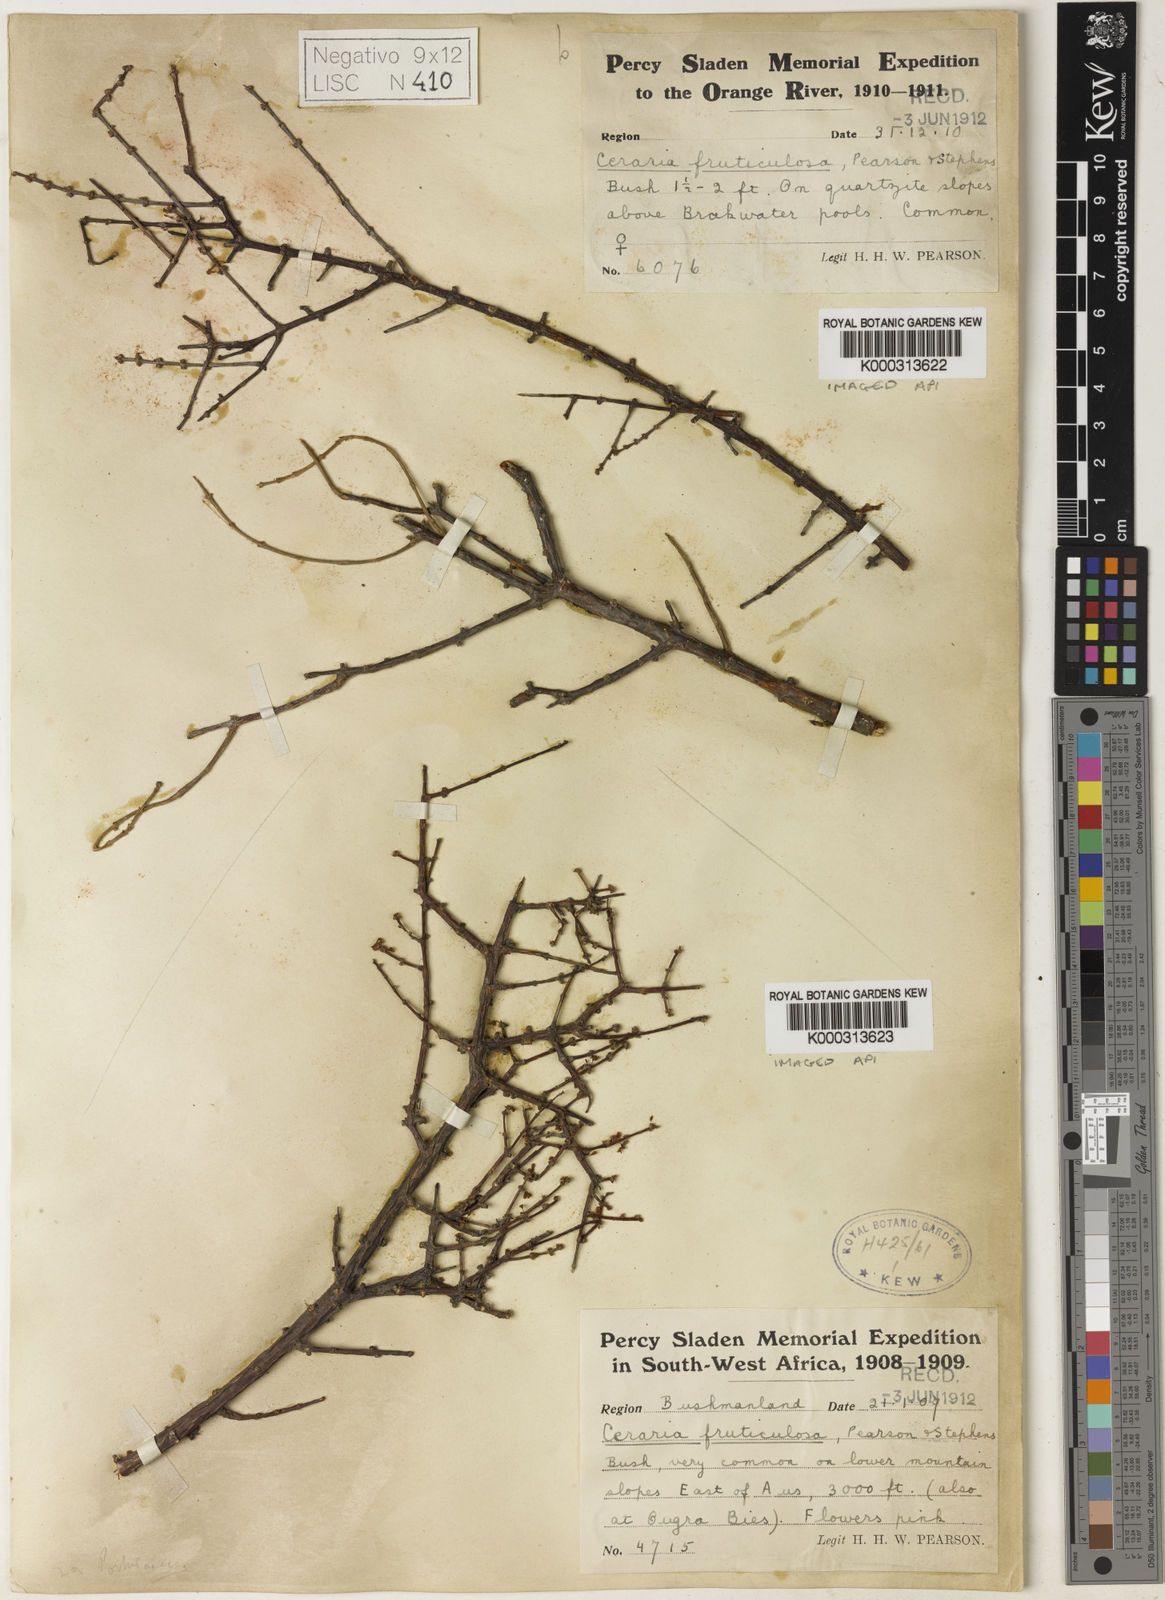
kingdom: Plantae
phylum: Tracheophyta
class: Magnoliopsida
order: Caryophyllales
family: Didiereaceae
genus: Portulacaria
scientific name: Portulacaria fruticulosa
